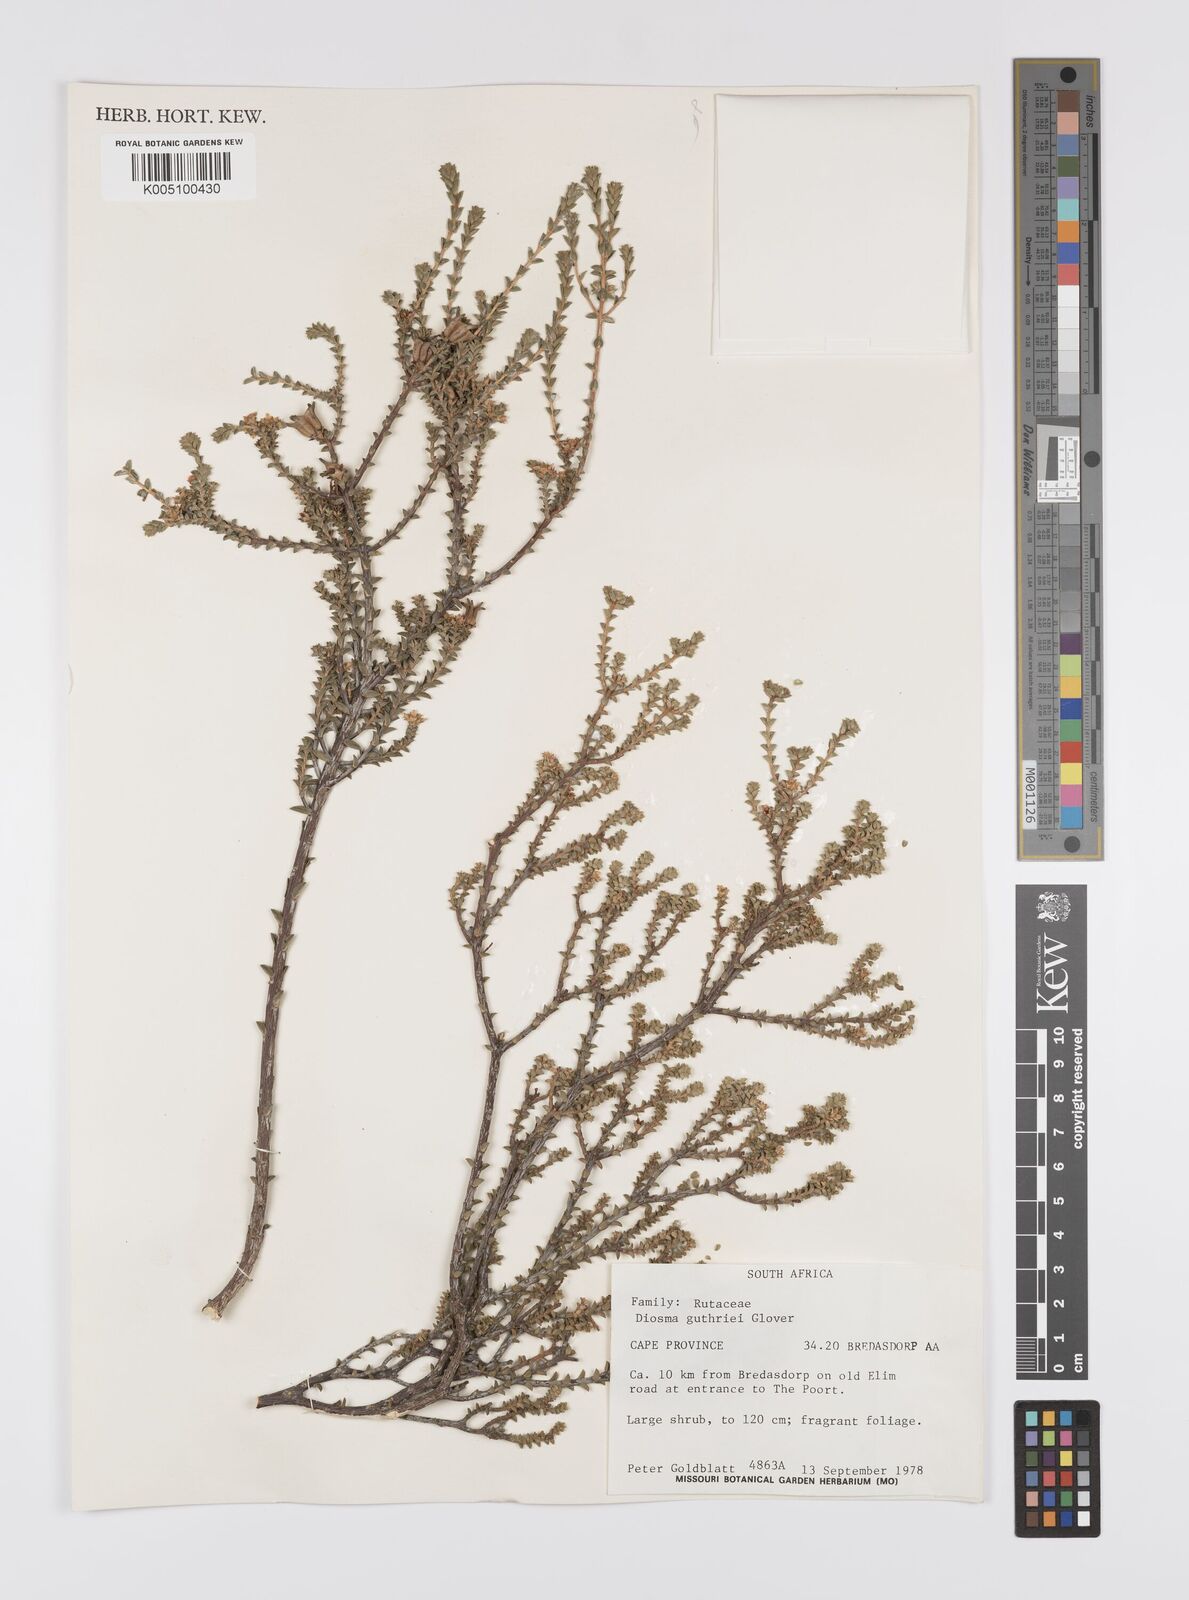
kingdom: Plantae
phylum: Tracheophyta
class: Magnoliopsida
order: Sapindales
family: Rutaceae
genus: Diosma
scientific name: Diosma guthriei
